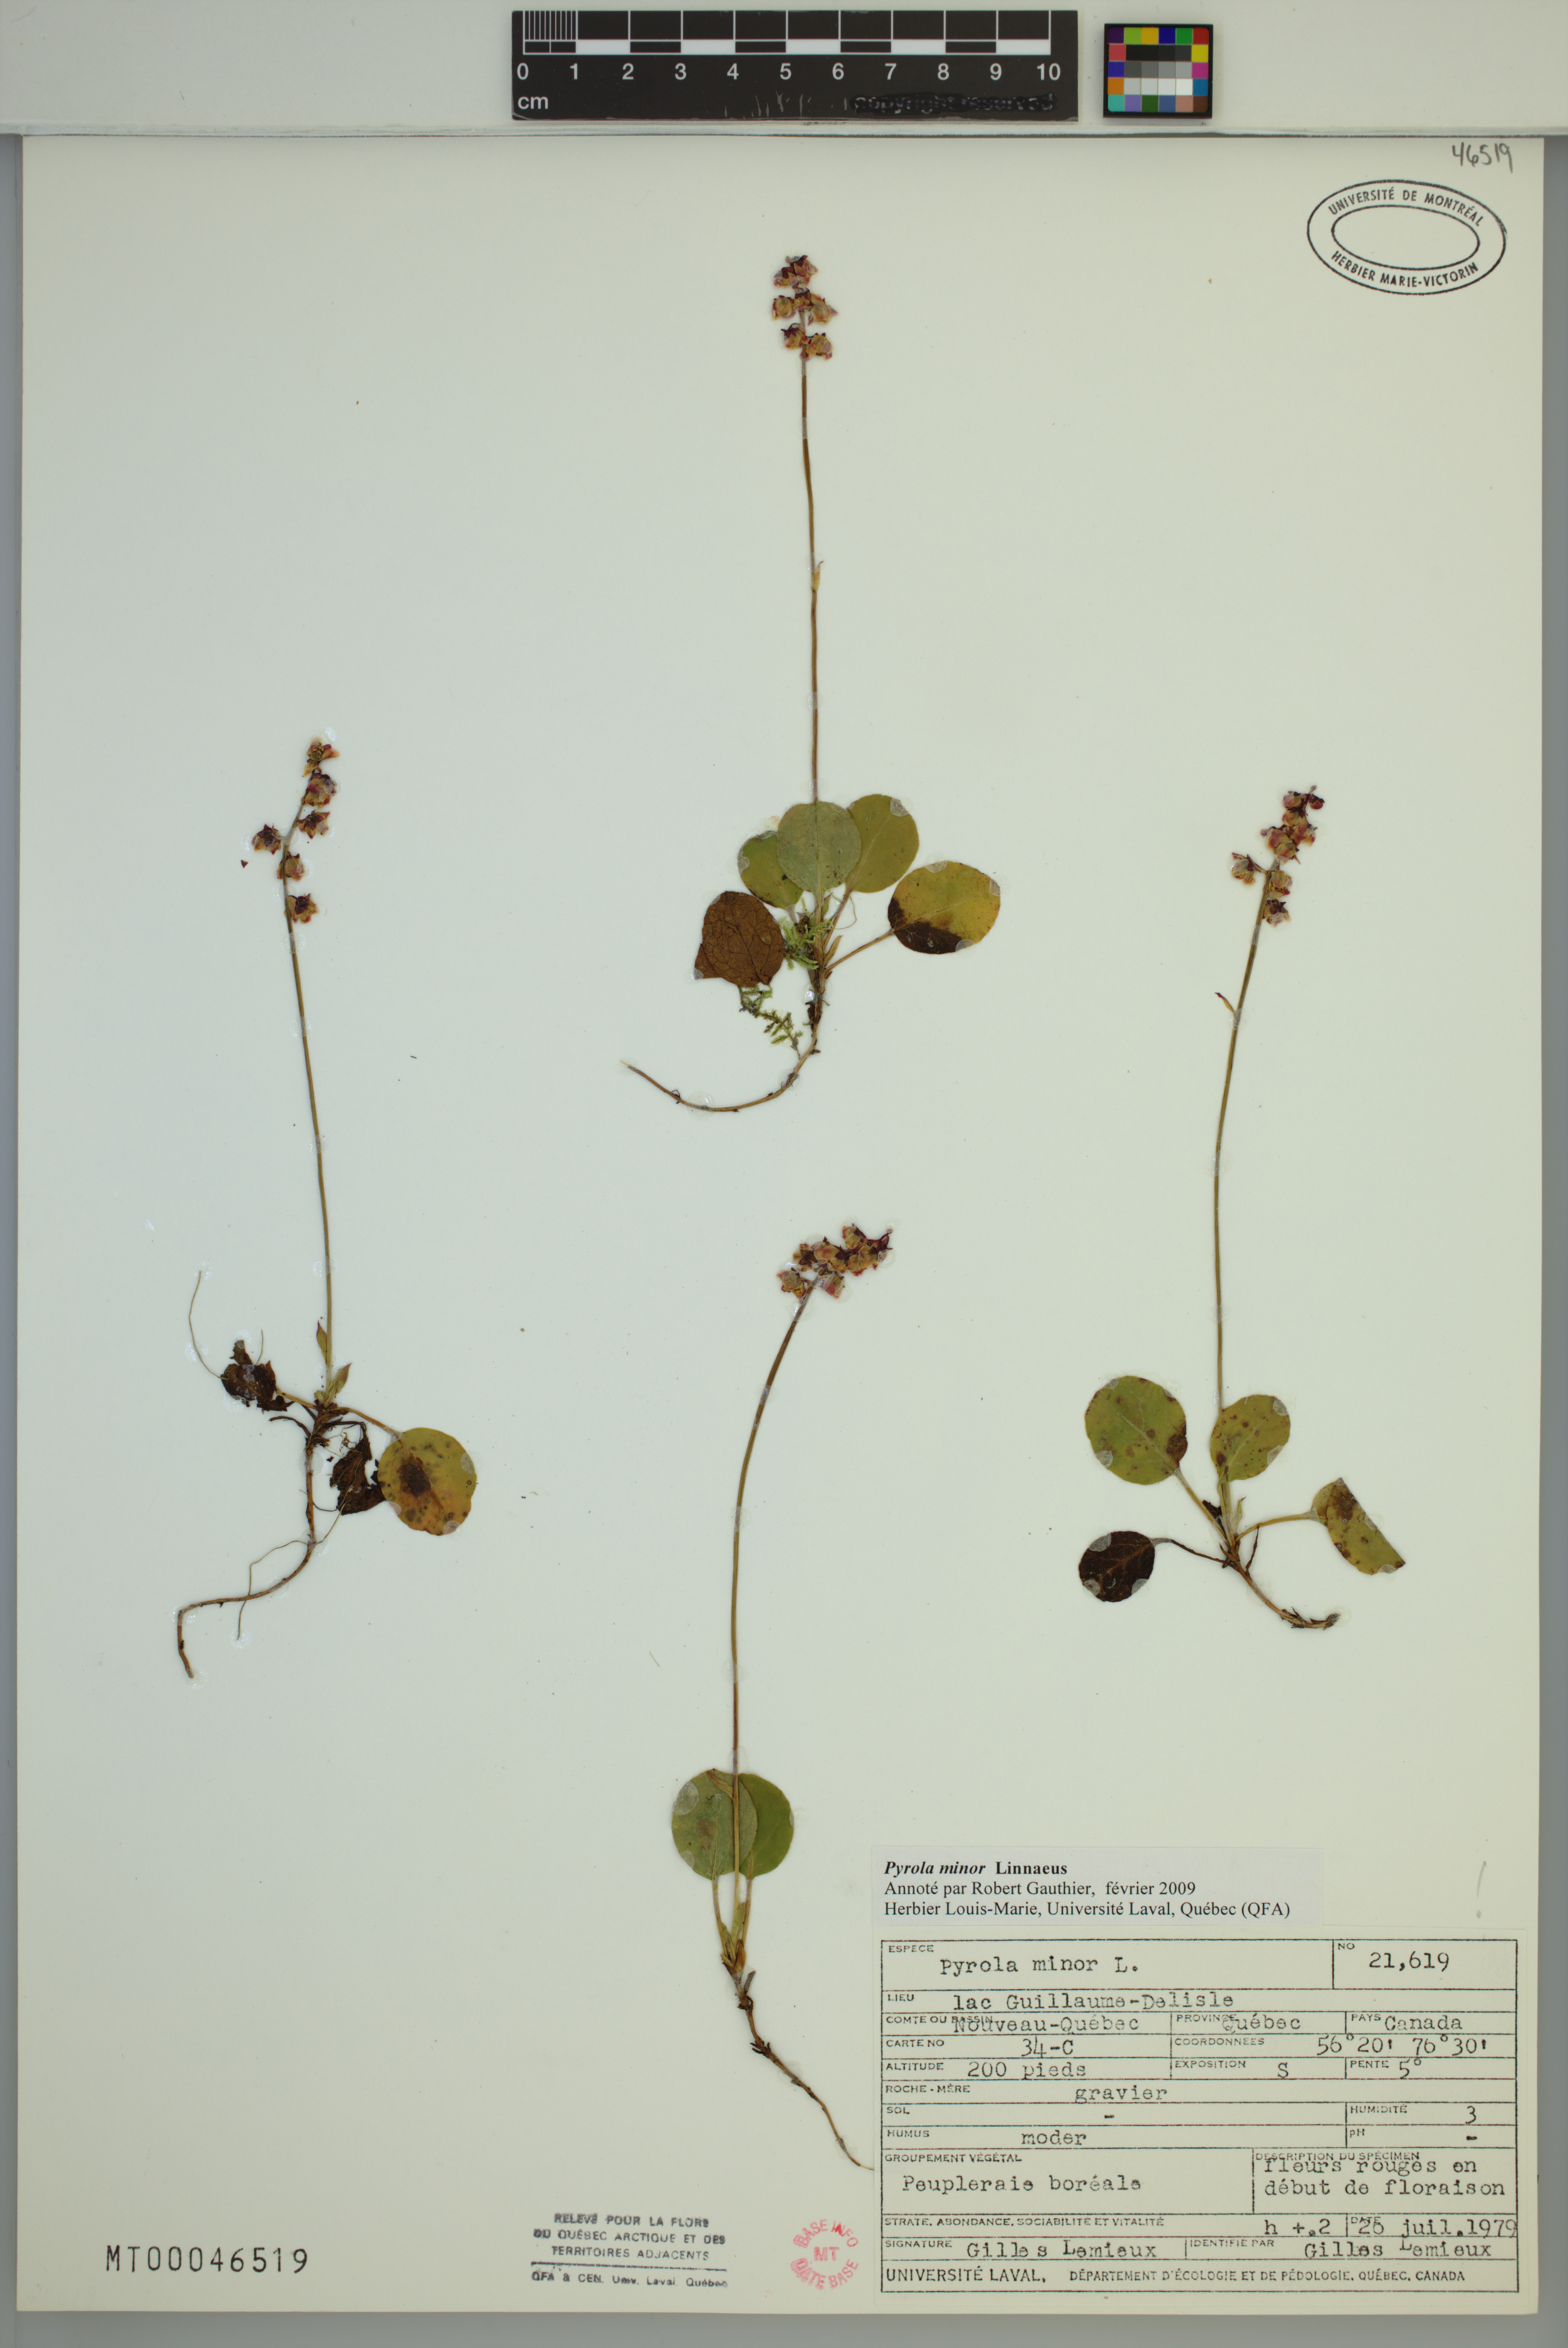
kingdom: Plantae
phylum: Tracheophyta
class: Magnoliopsida
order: Ericales
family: Ericaceae
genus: Pyrola
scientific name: Pyrola minor
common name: Common wintergreen
